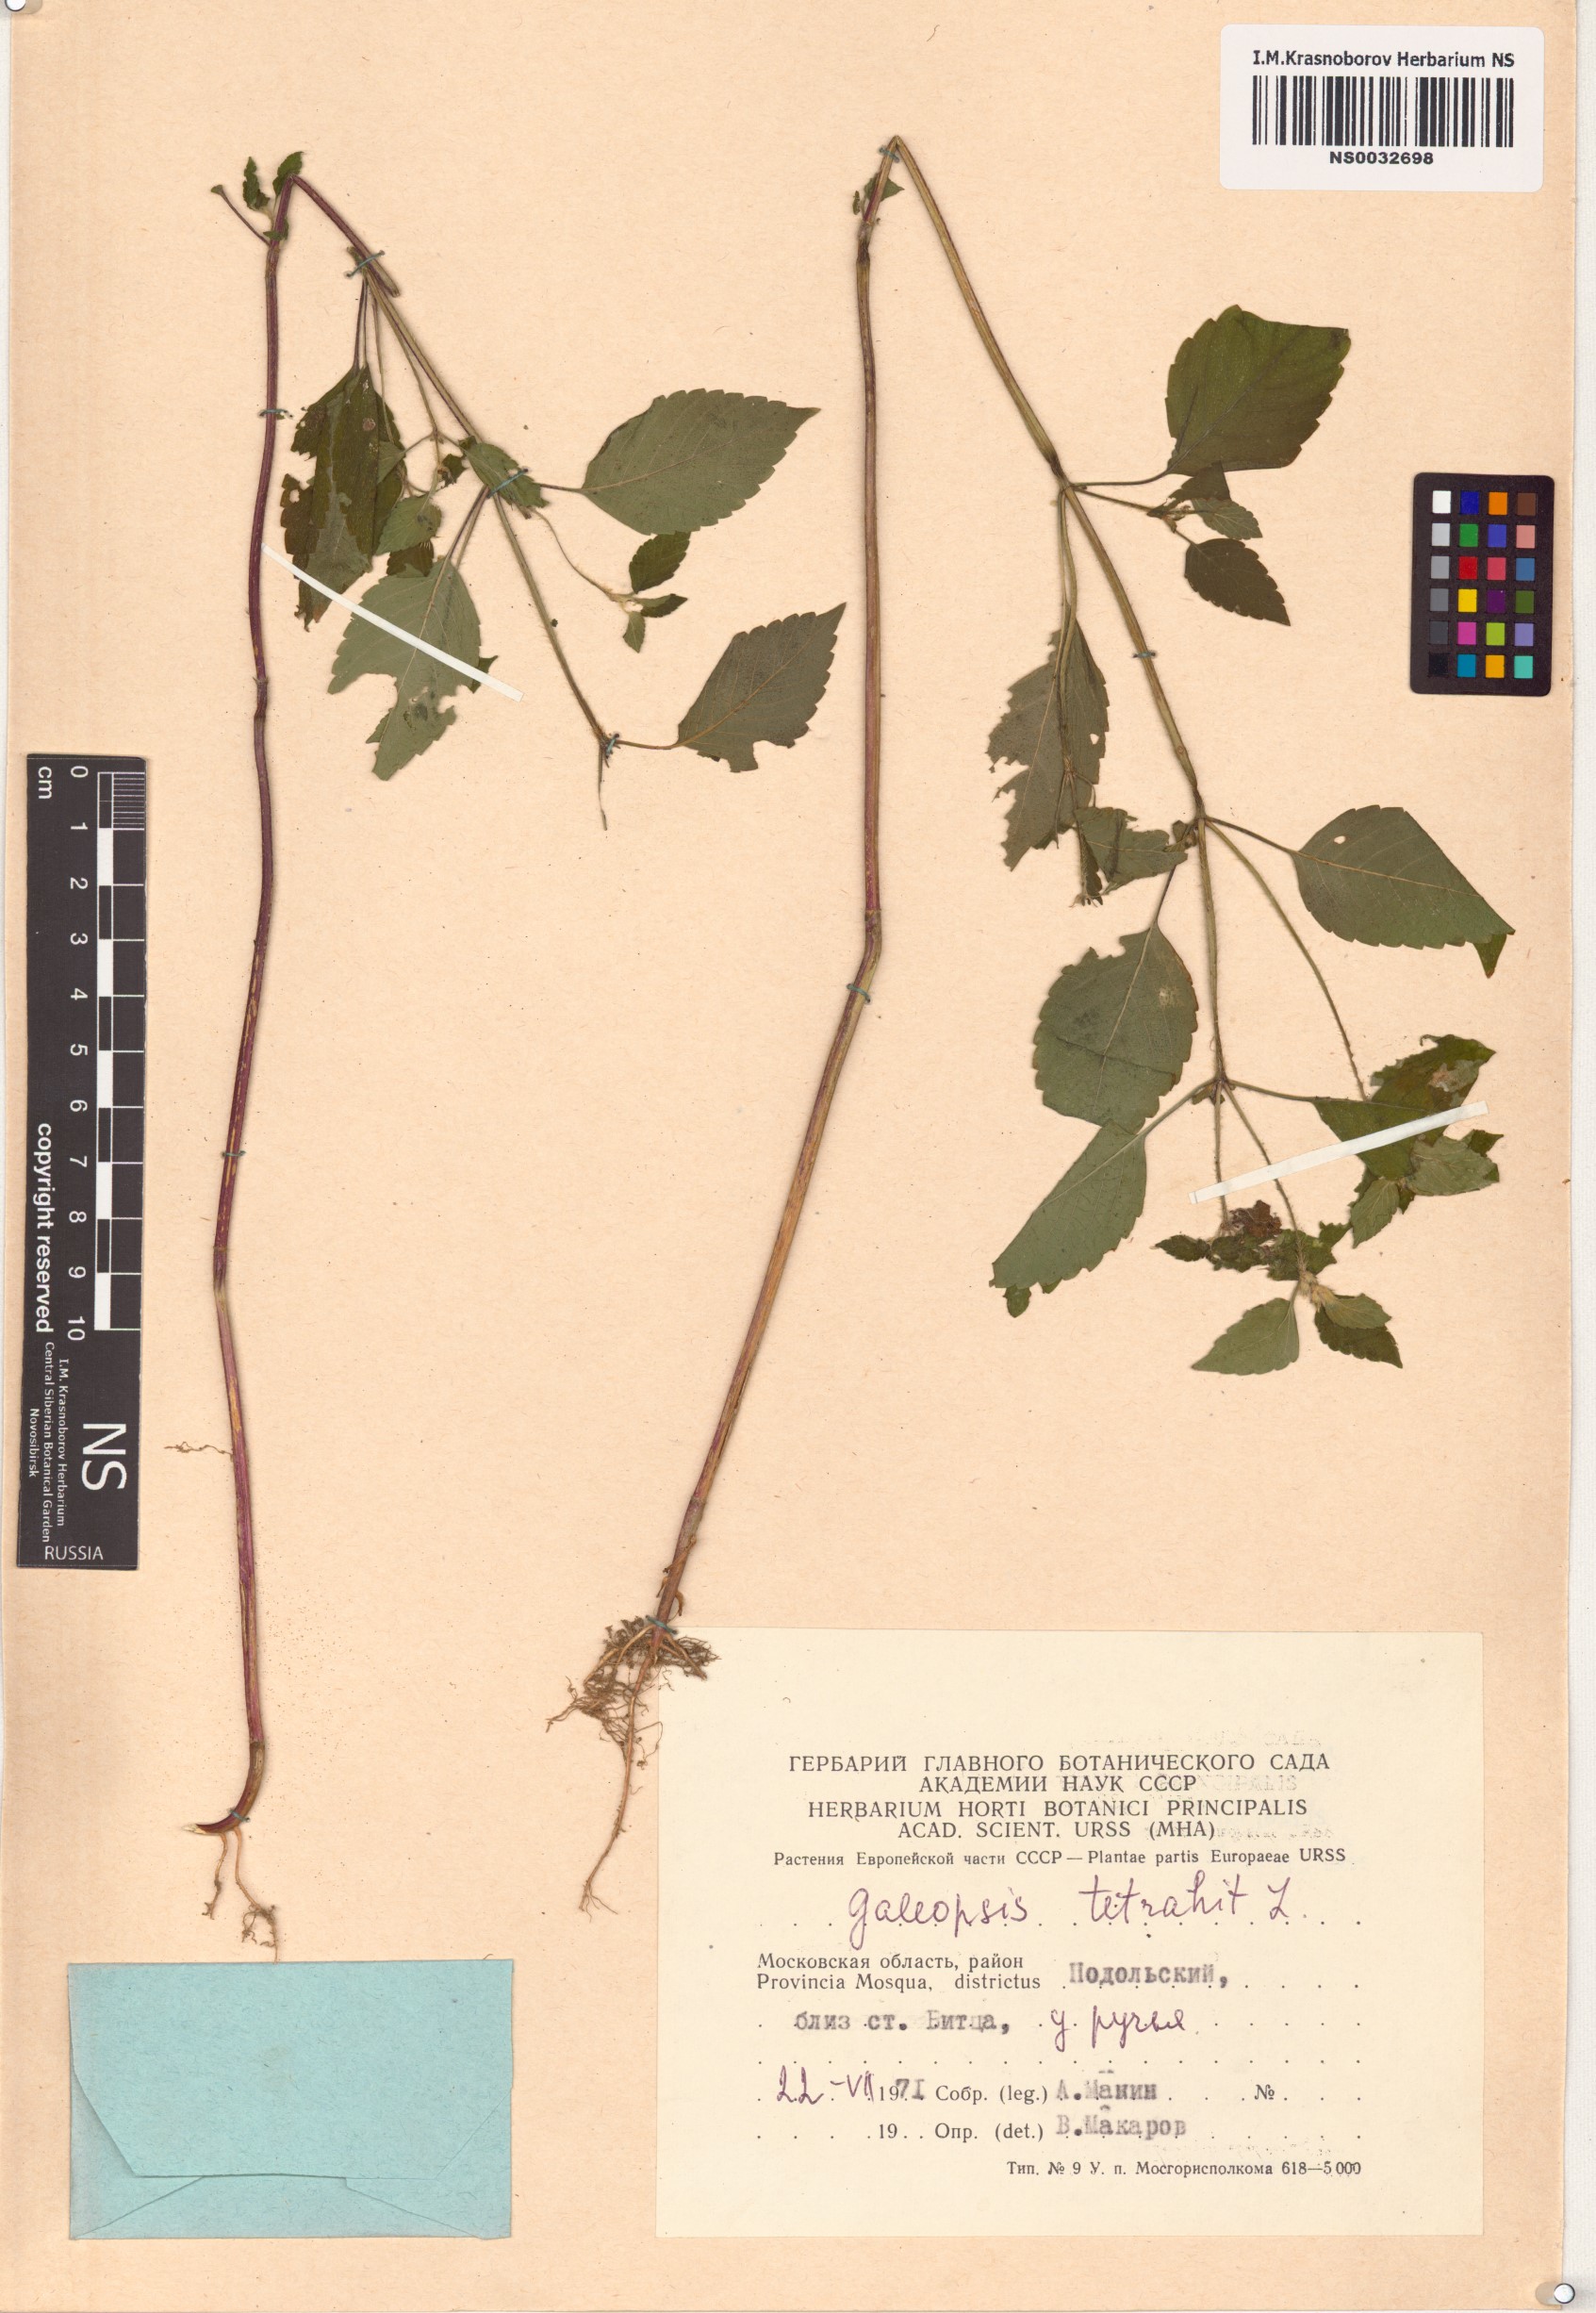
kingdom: Plantae
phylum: Tracheophyta
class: Magnoliopsida
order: Lamiales
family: Lamiaceae
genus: Galeopsis
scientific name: Galeopsis tetrahit
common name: Common hemp-nettle
